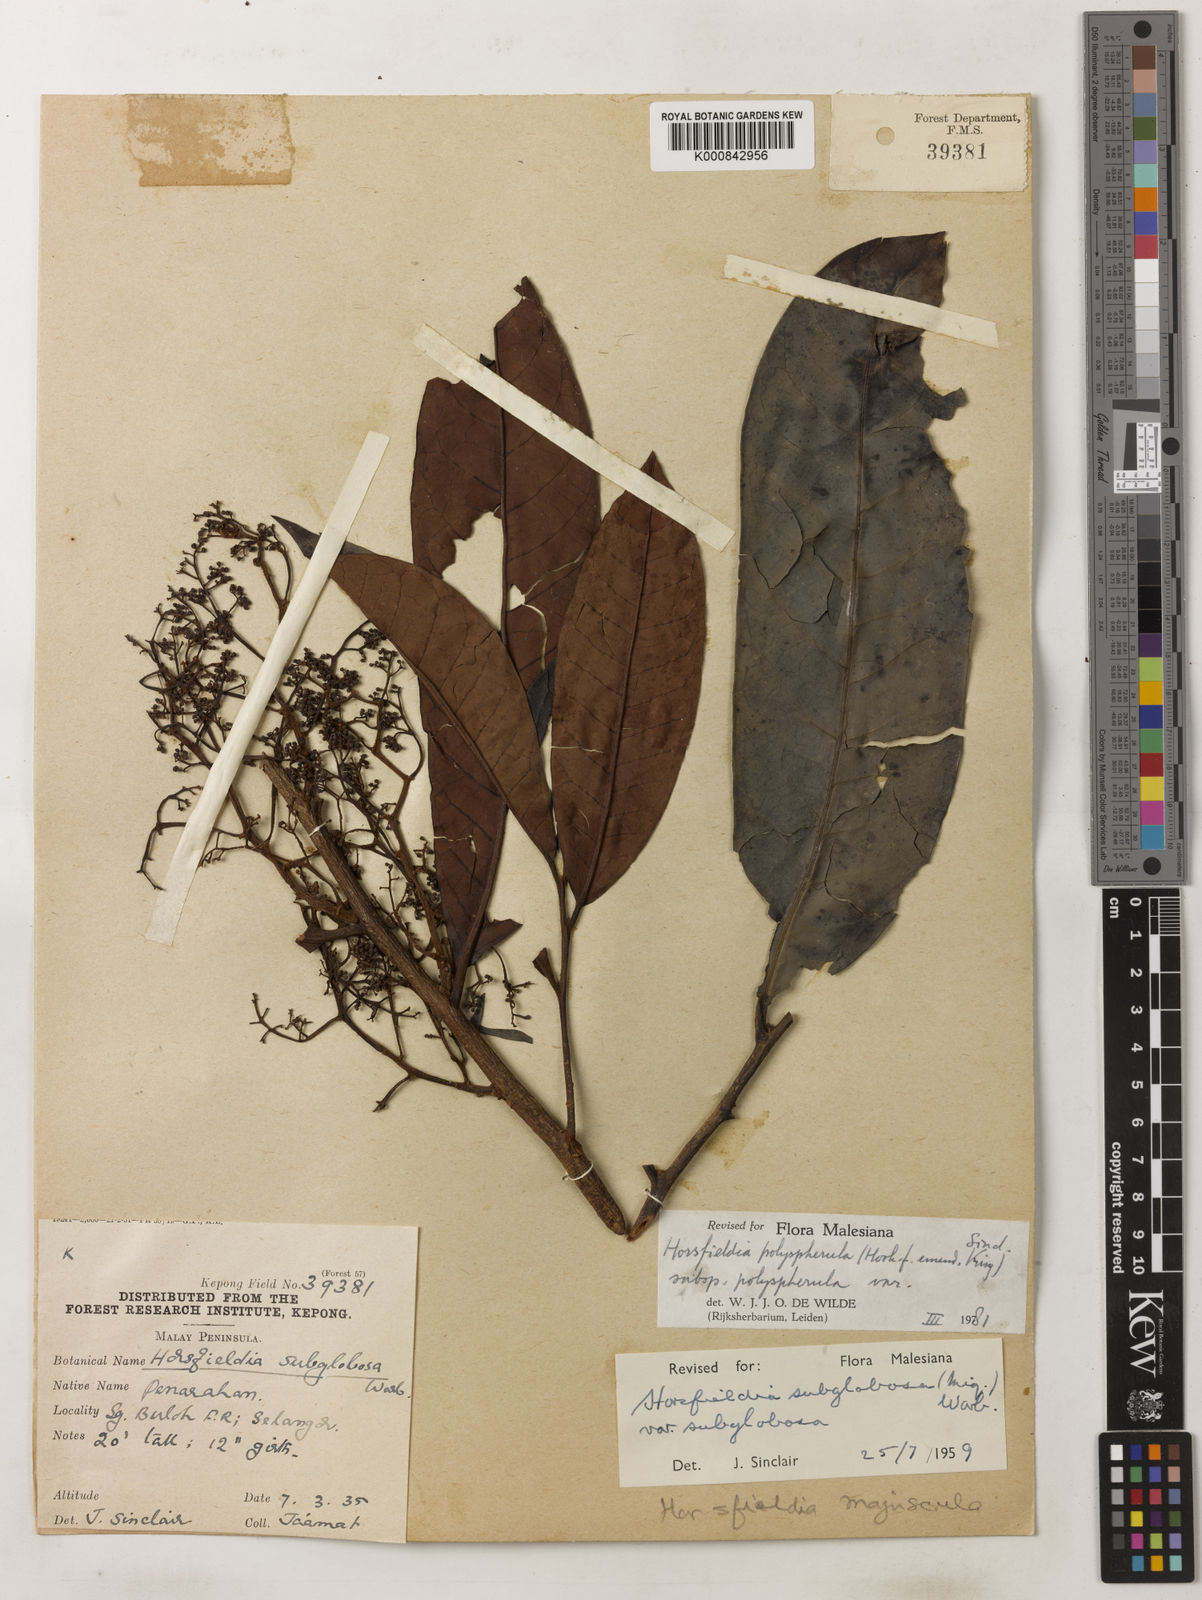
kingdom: Plantae
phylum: Tracheophyta
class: Magnoliopsida
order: Magnoliales
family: Myristicaceae
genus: Horsfieldia
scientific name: Horsfieldia
